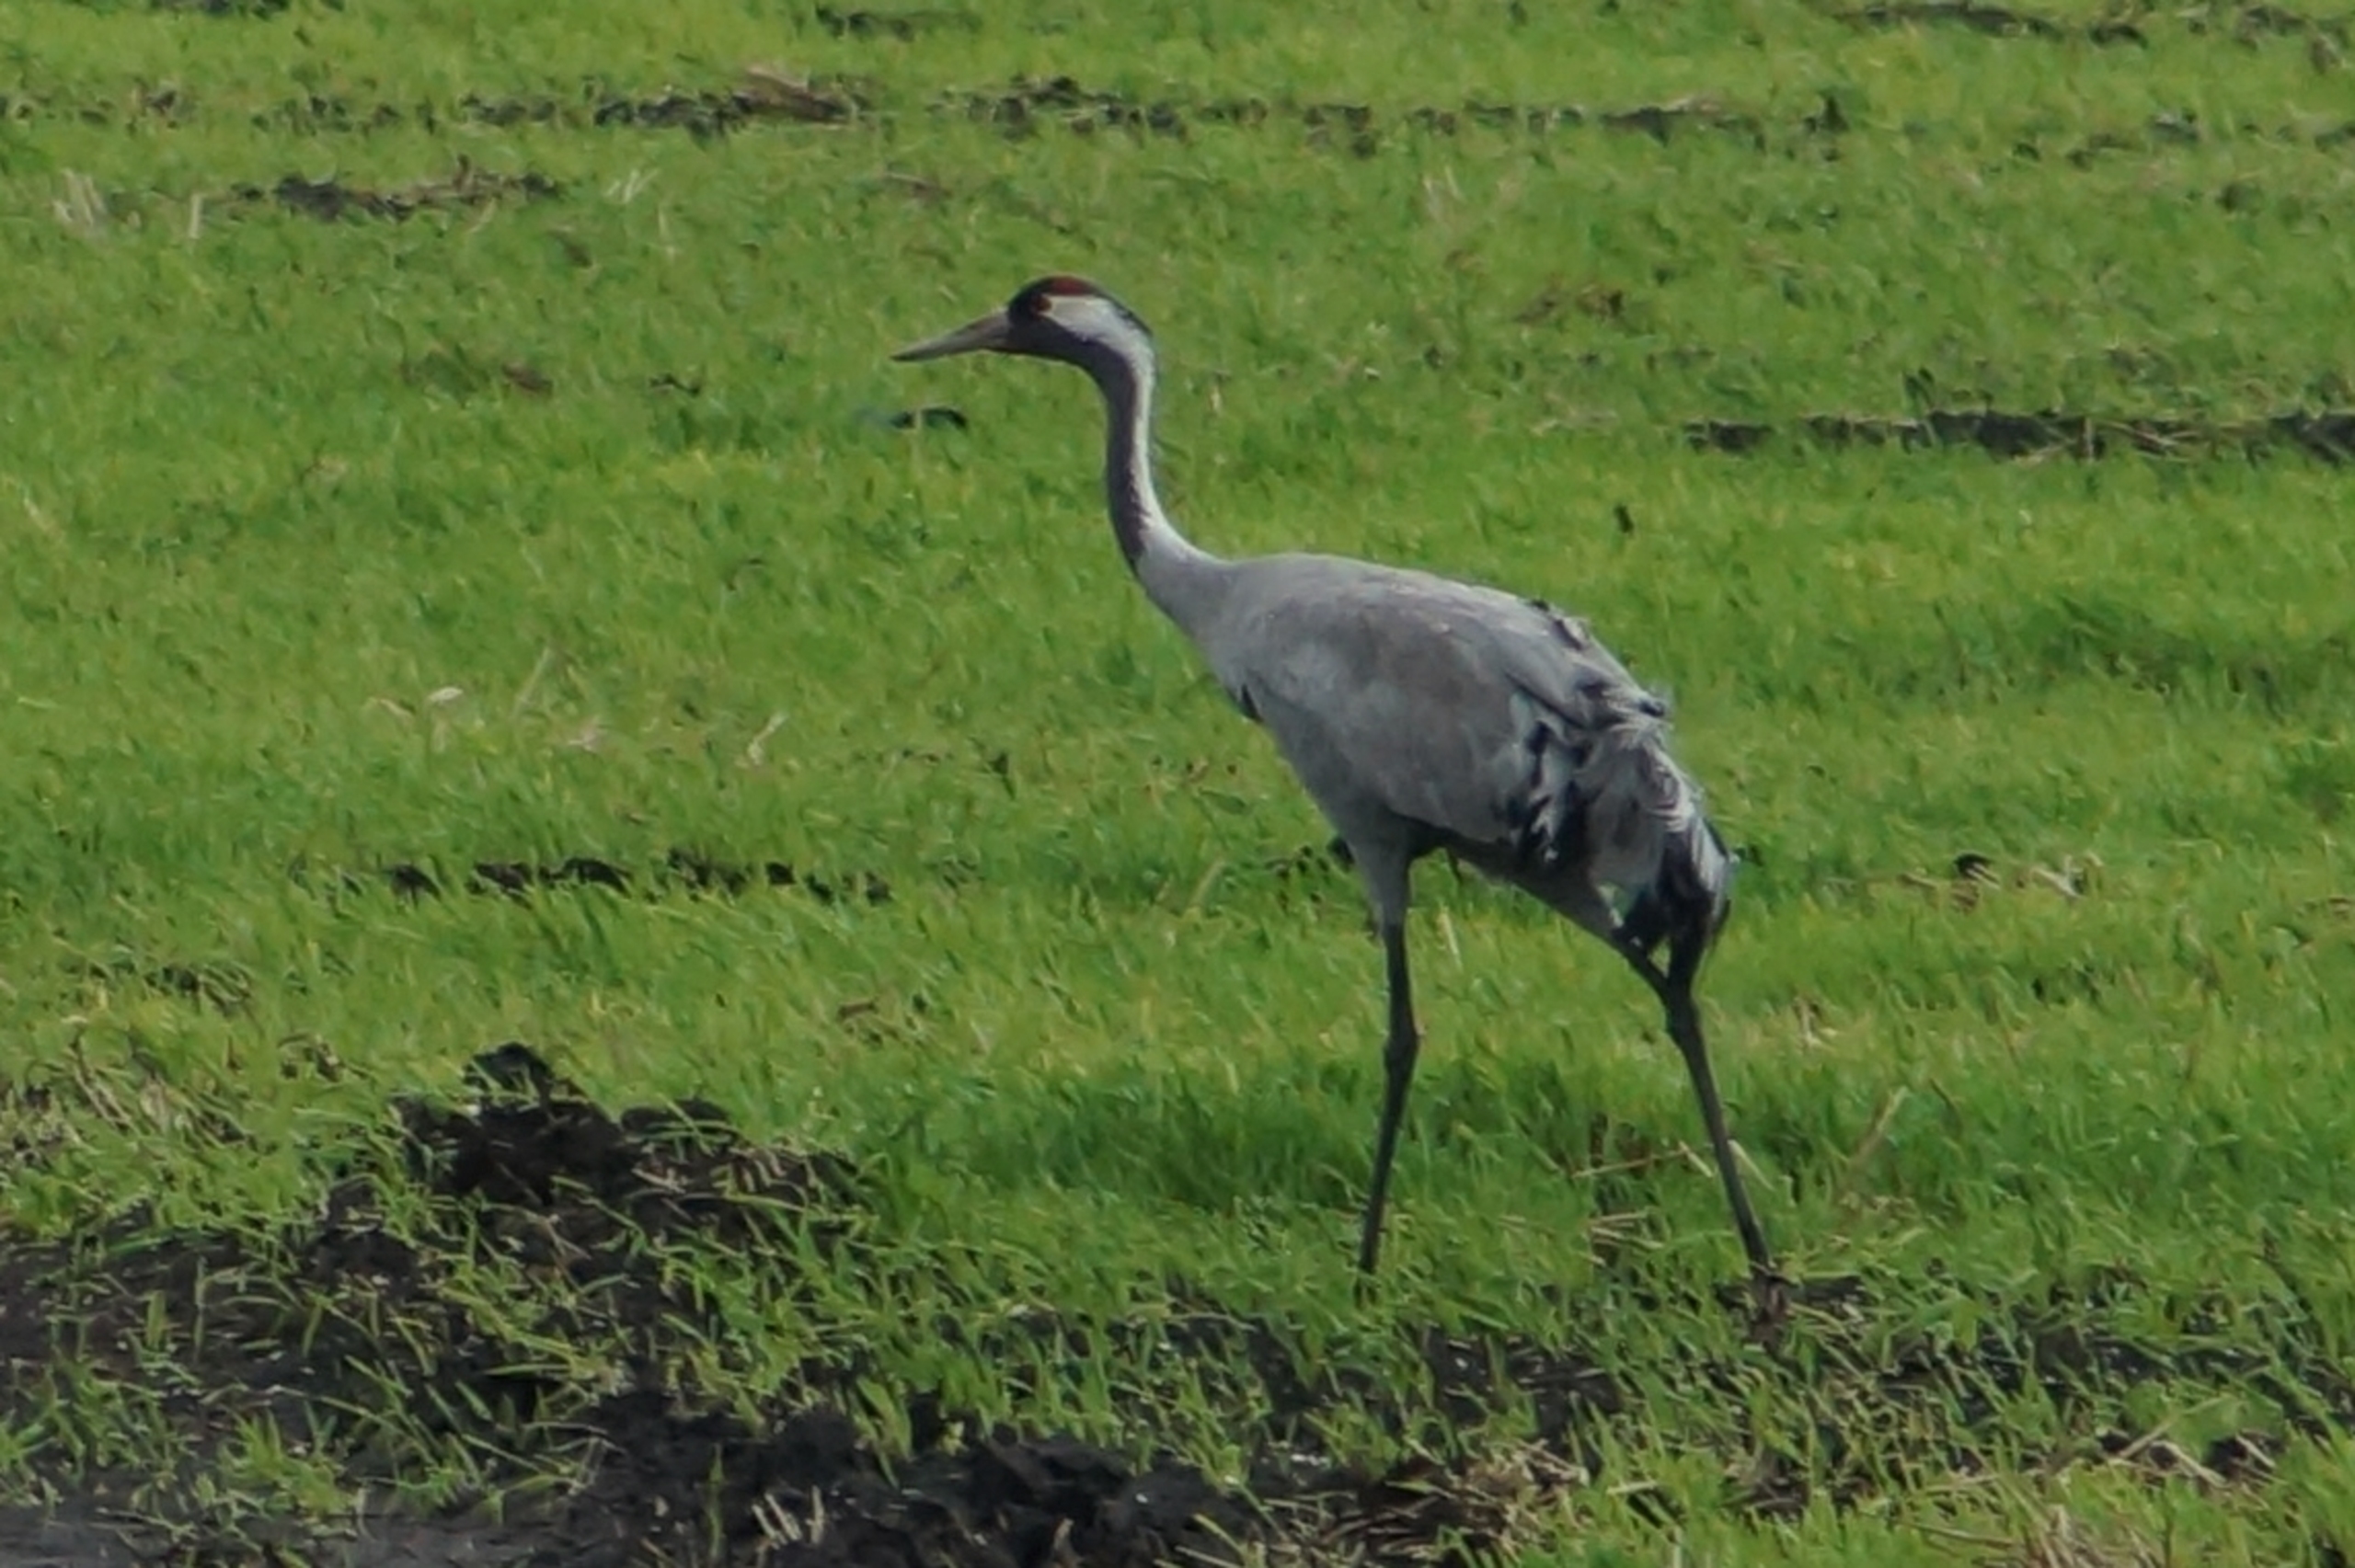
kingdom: Animalia
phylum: Chordata
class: Aves
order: Gruiformes
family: Gruidae
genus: Grus
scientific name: Grus grus
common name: Trane
